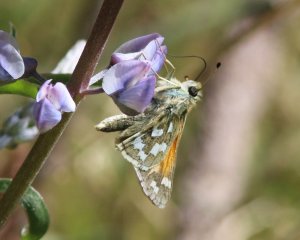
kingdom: Animalia
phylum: Arthropoda
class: Insecta
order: Lepidoptera
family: Hesperiidae
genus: Hesperia
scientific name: Hesperia juba
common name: Juba Skipper
